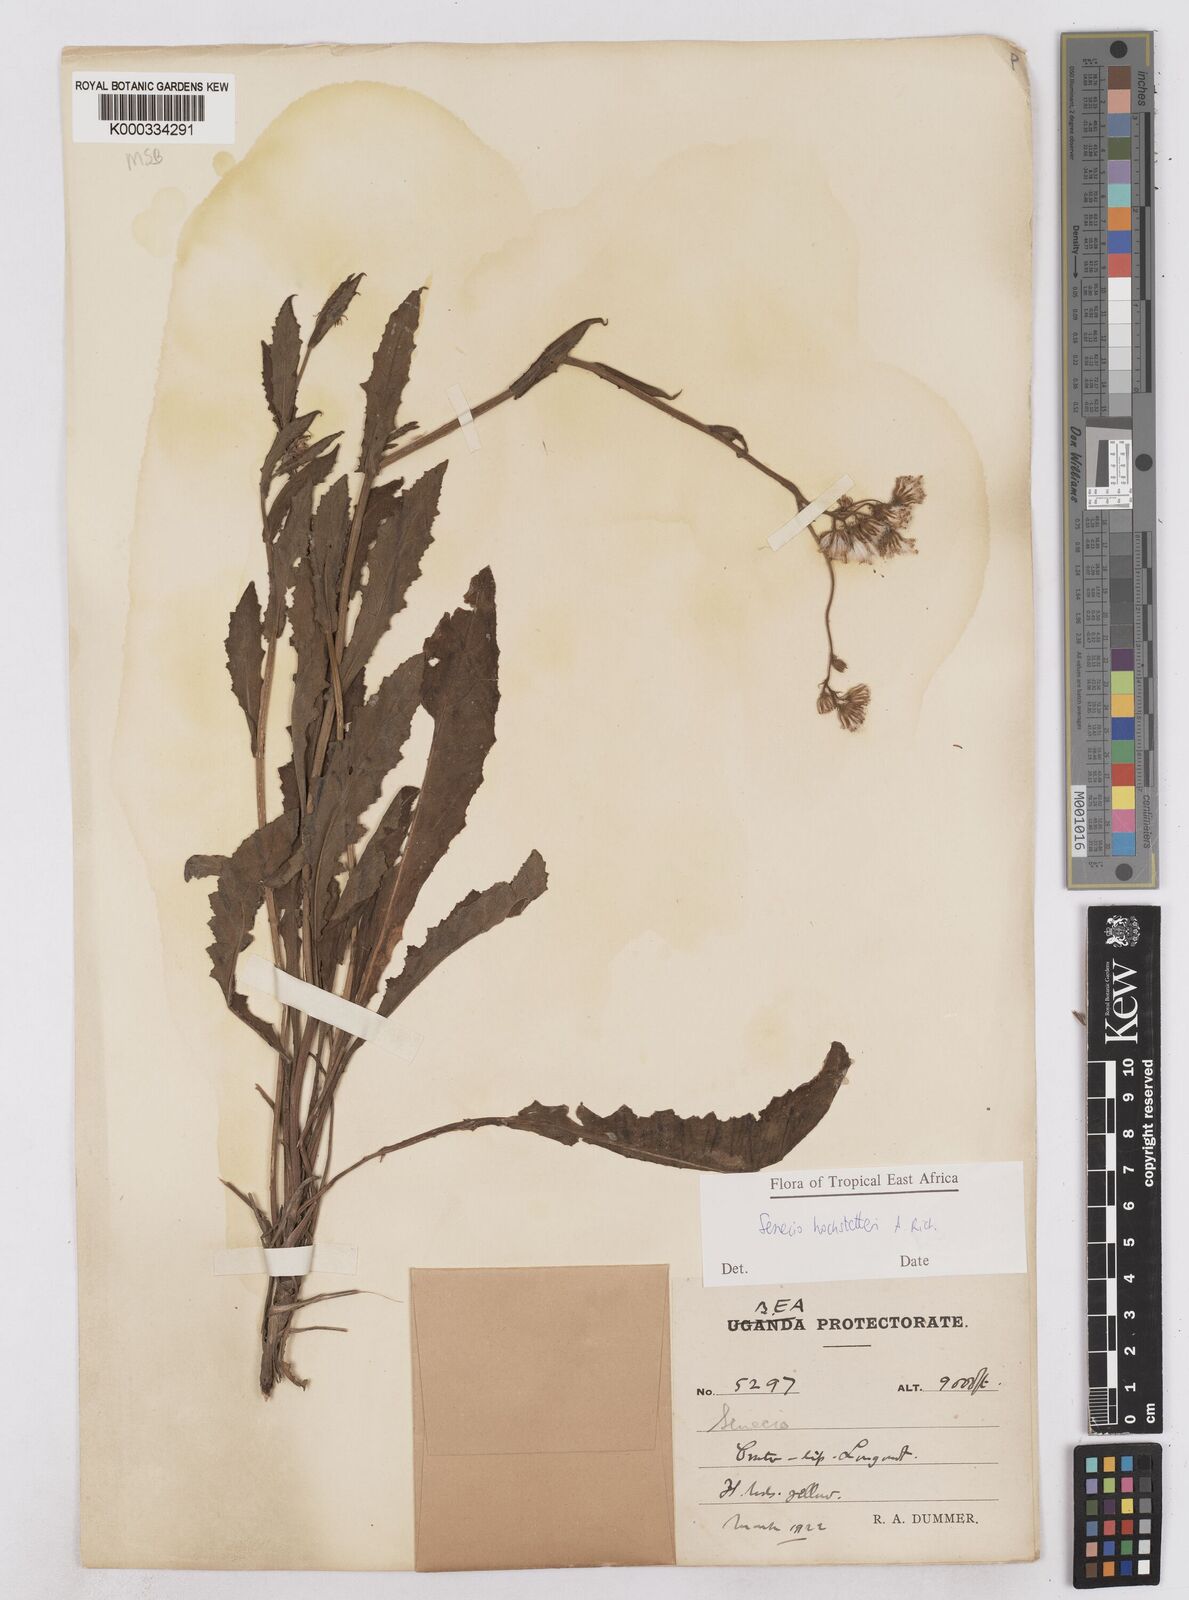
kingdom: Plantae
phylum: Tracheophyta
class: Magnoliopsida
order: Asterales
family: Asteraceae
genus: Senecio
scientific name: Senecio hochstetteri
